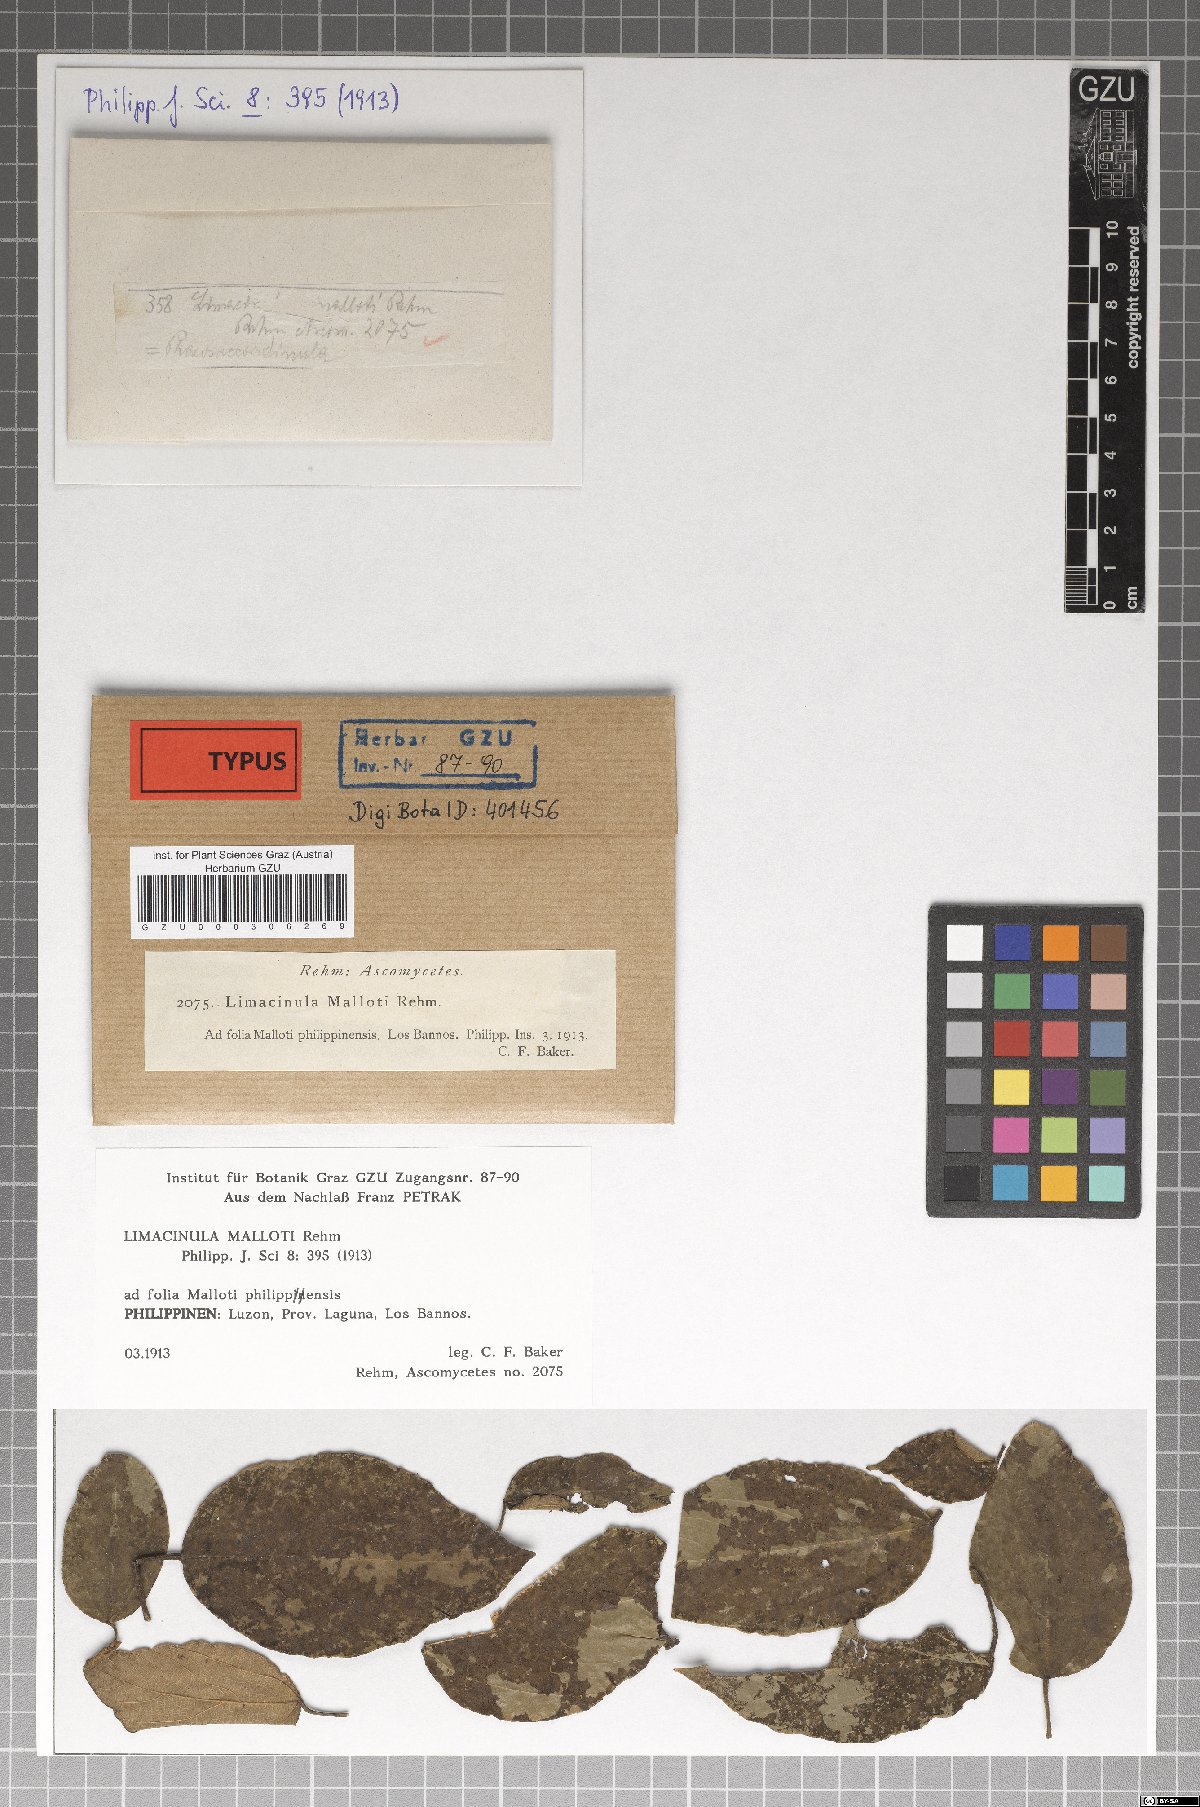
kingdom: Fungi
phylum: Ascomycota
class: Eurotiomycetes
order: Chaetothyriales
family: Chaetothyriaceae
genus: Phaeosaccardinula
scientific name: Phaeosaccardinula malloti
